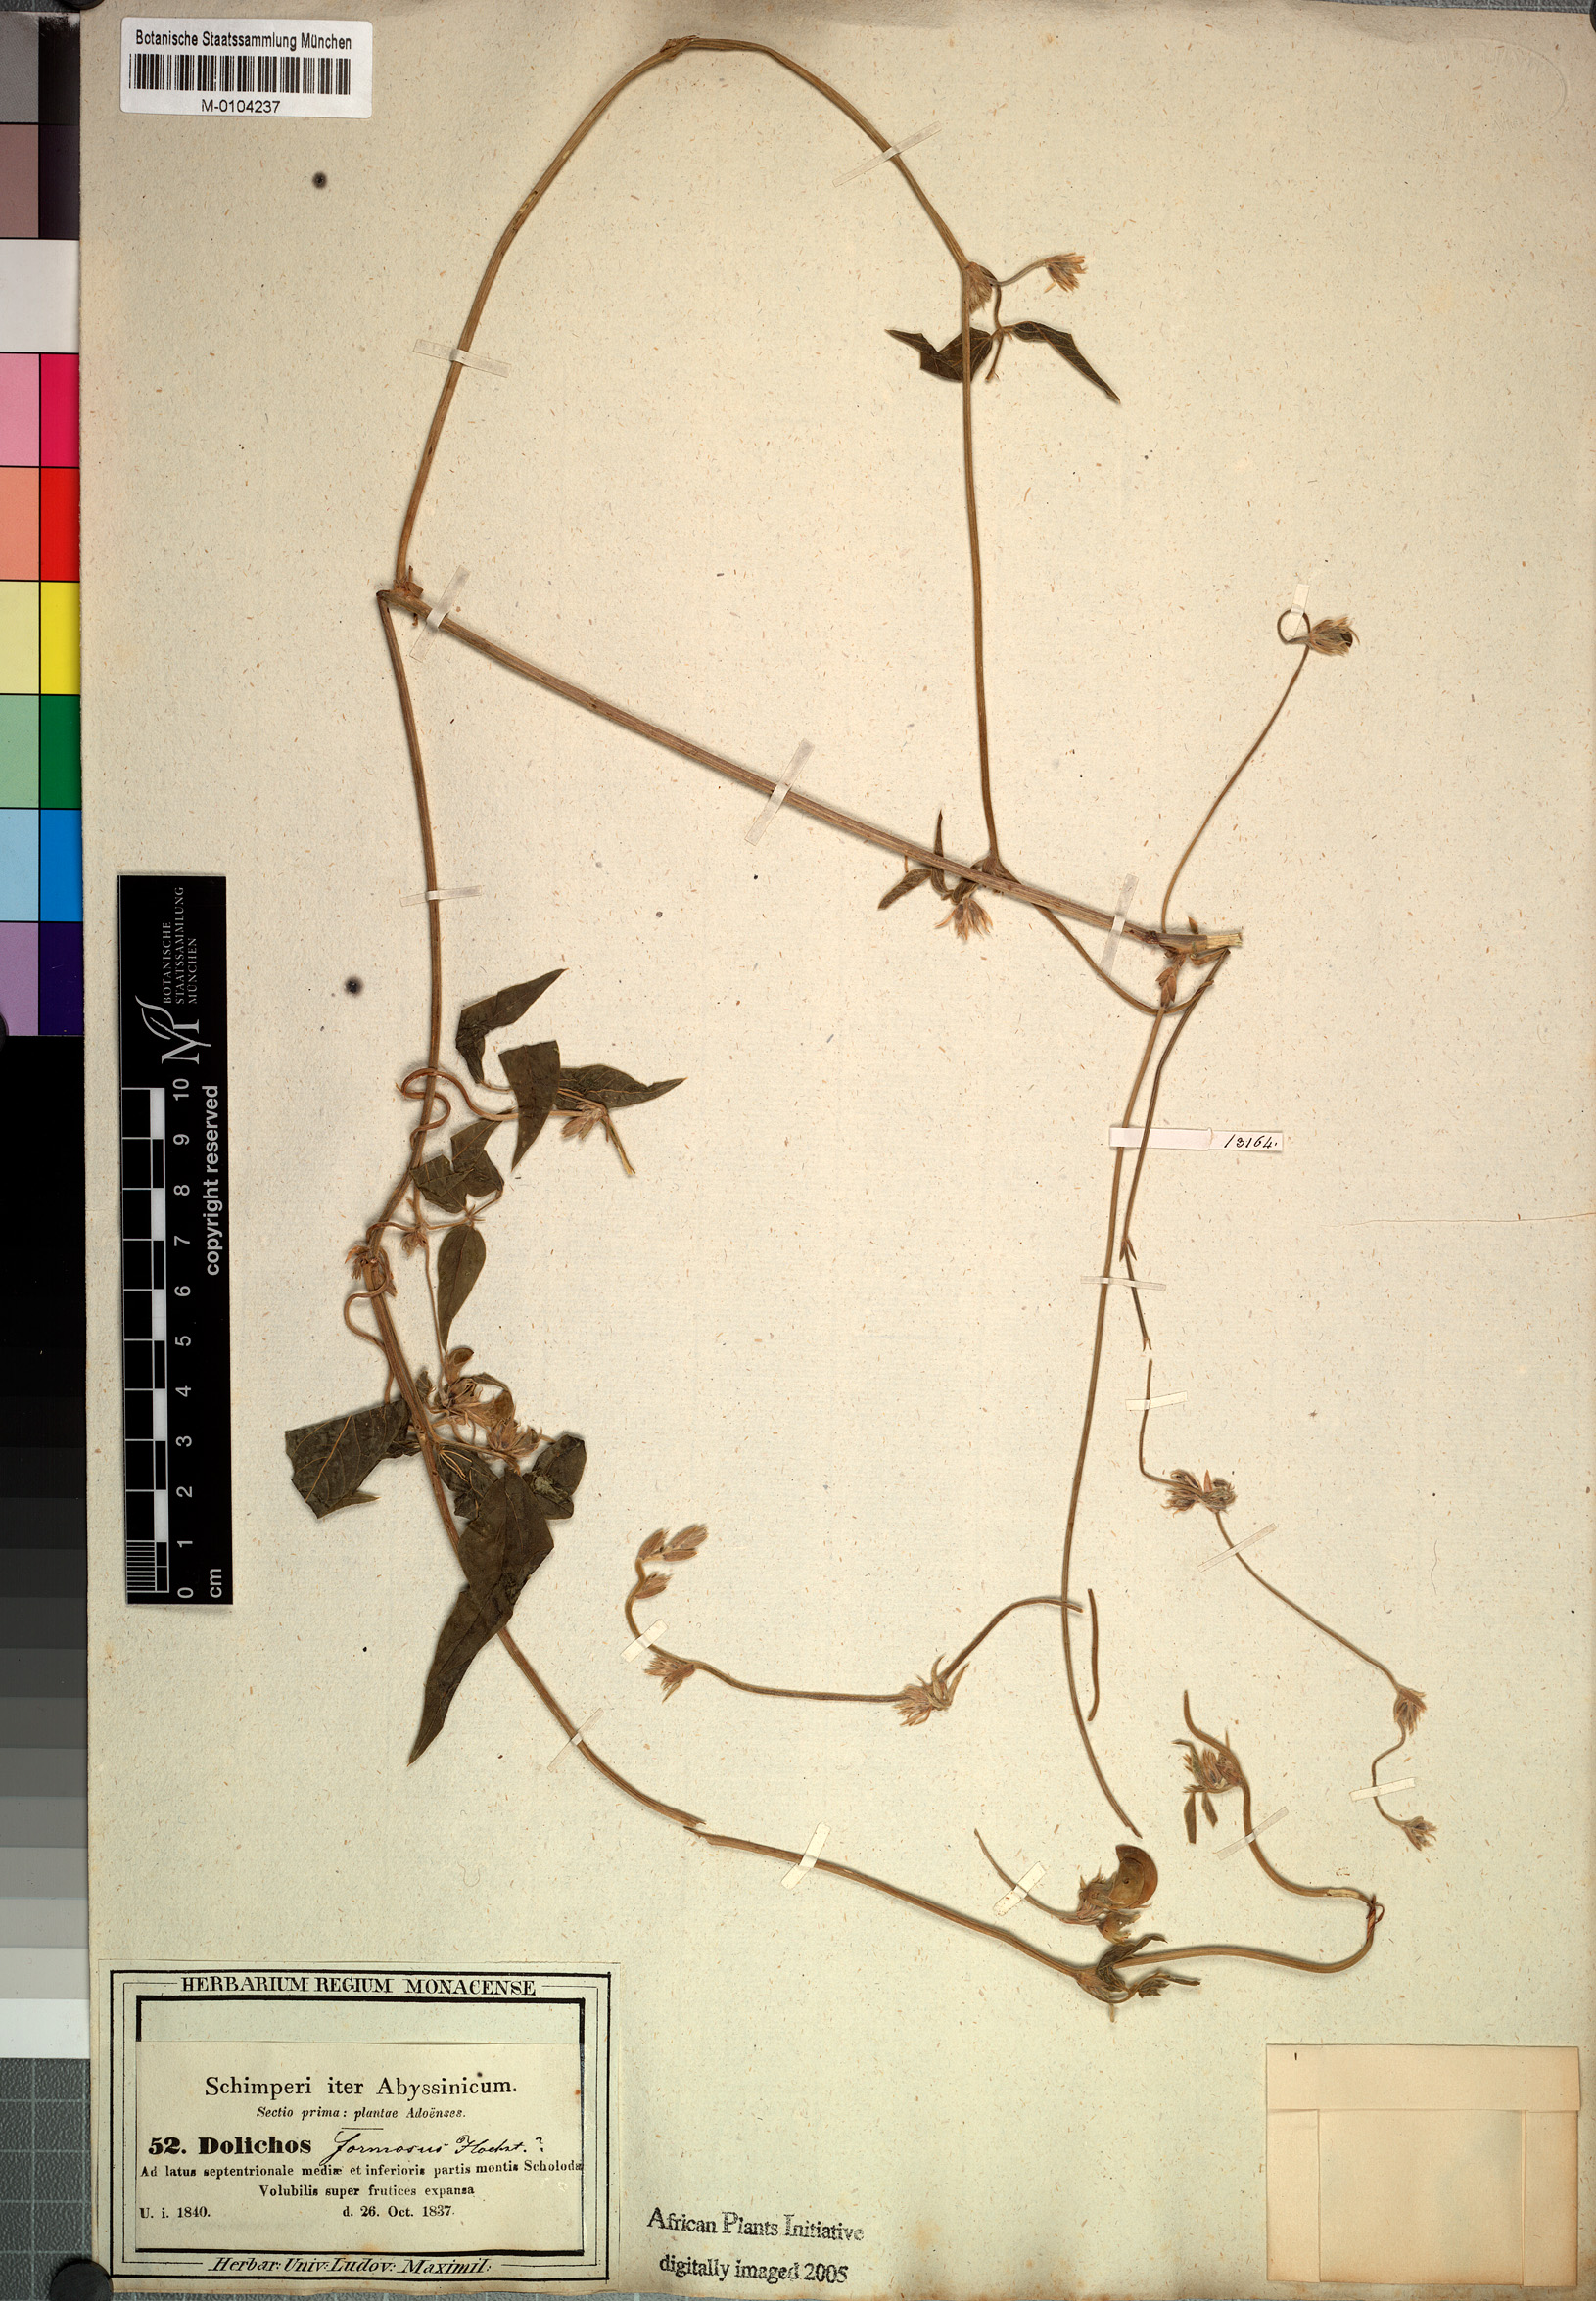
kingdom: Plantae
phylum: Tracheophyta
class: Magnoliopsida
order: Fabales
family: Fabaceae
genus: Dolichos
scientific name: Dolichos sericeus
